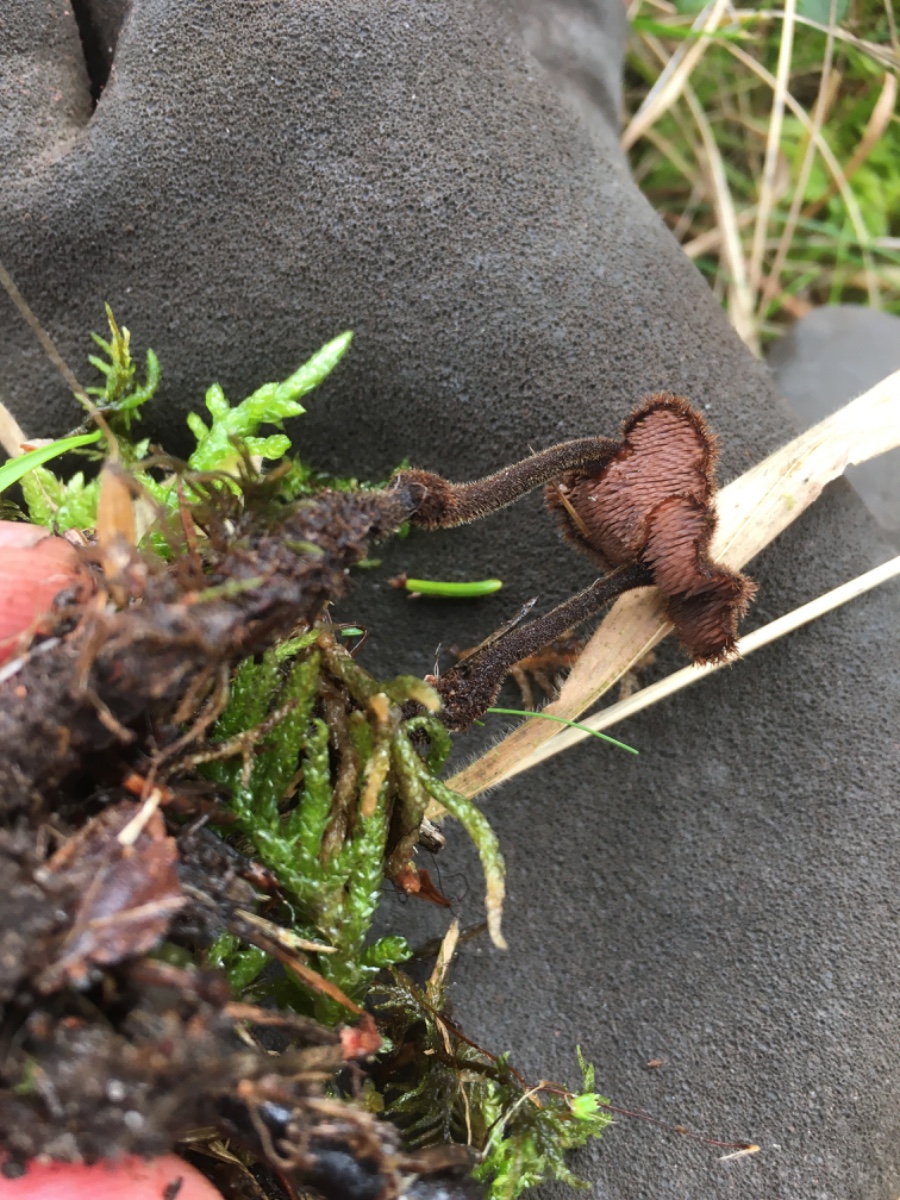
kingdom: Fungi
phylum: Basidiomycota
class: Agaricomycetes
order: Russulales
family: Auriscalpiaceae
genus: Auriscalpium
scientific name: Auriscalpium vulgare
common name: koglepigsvamp
